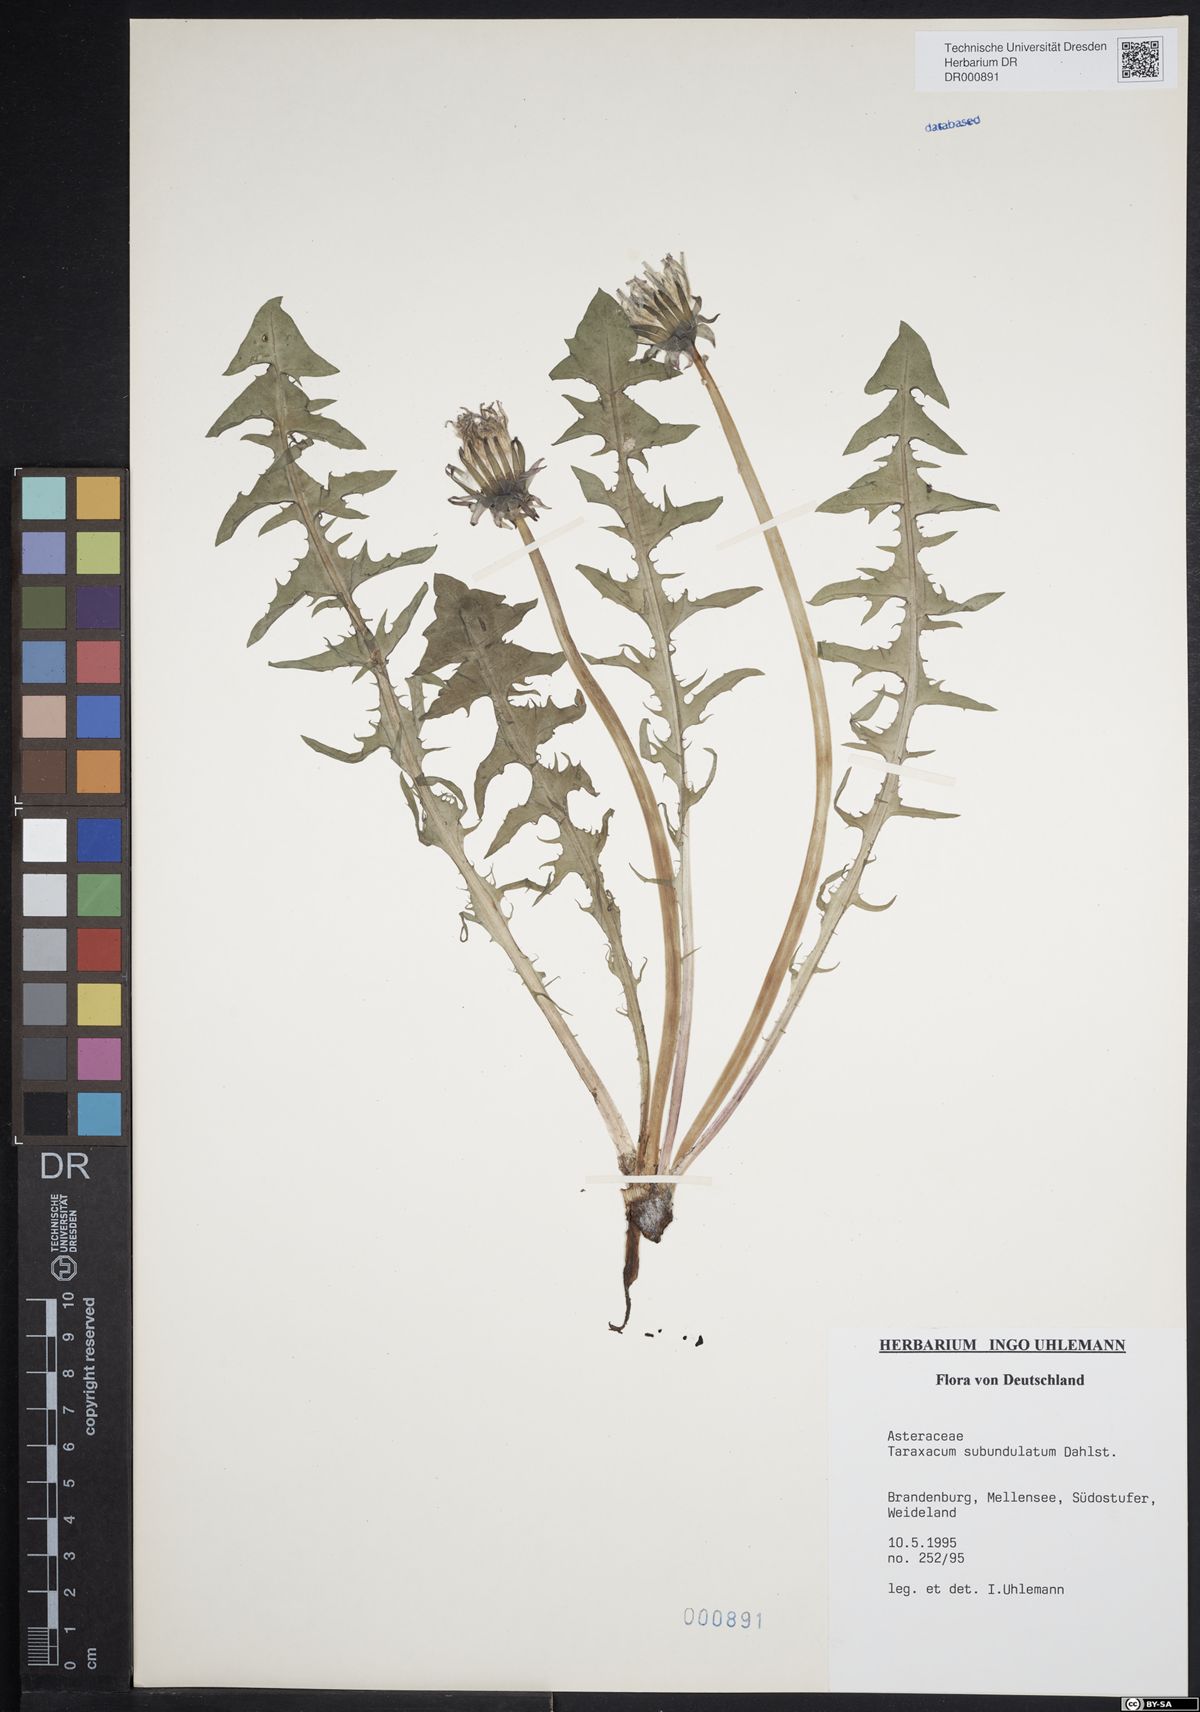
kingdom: Plantae
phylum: Tracheophyta
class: Magnoliopsida
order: Asterales
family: Asteraceae
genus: Taraxacum
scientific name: Taraxacum subundulatum
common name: Complex-leaved dandelion
